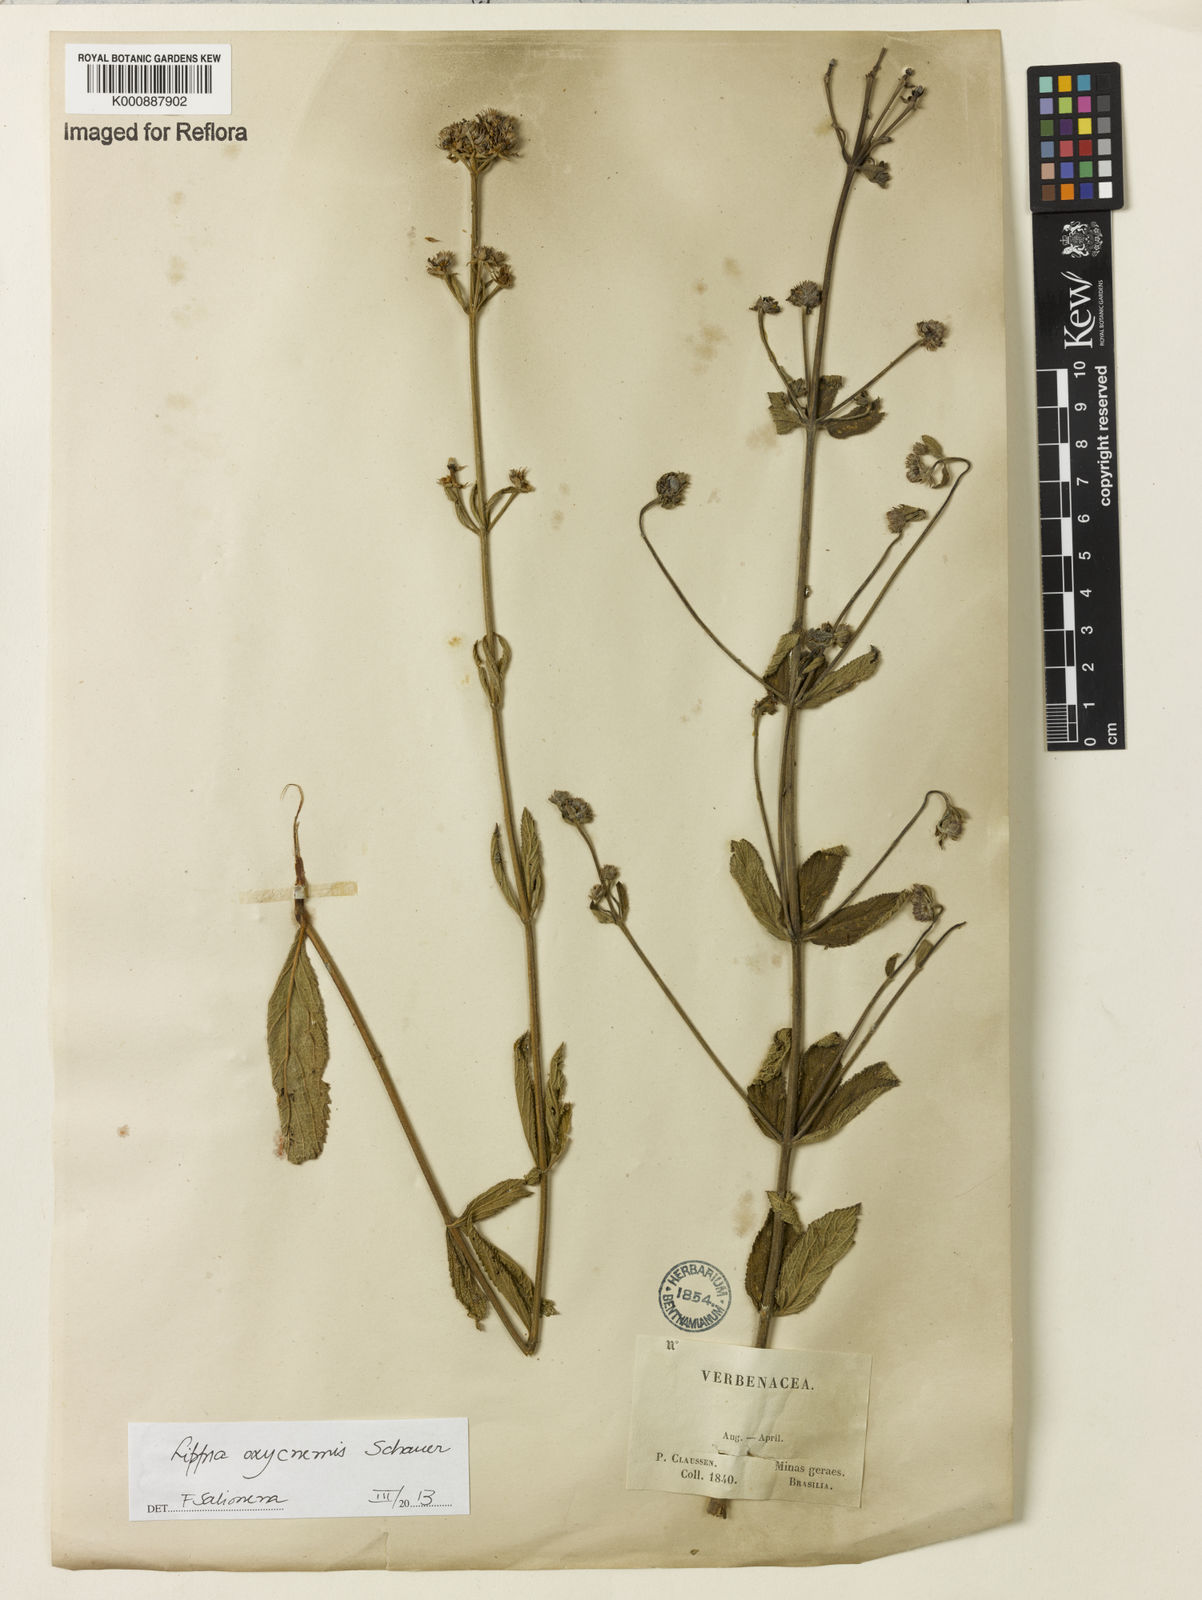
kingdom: Plantae
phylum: Tracheophyta
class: Magnoliopsida
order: Lamiales
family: Verbenaceae
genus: Lippia
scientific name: Lippia oxycnemis
